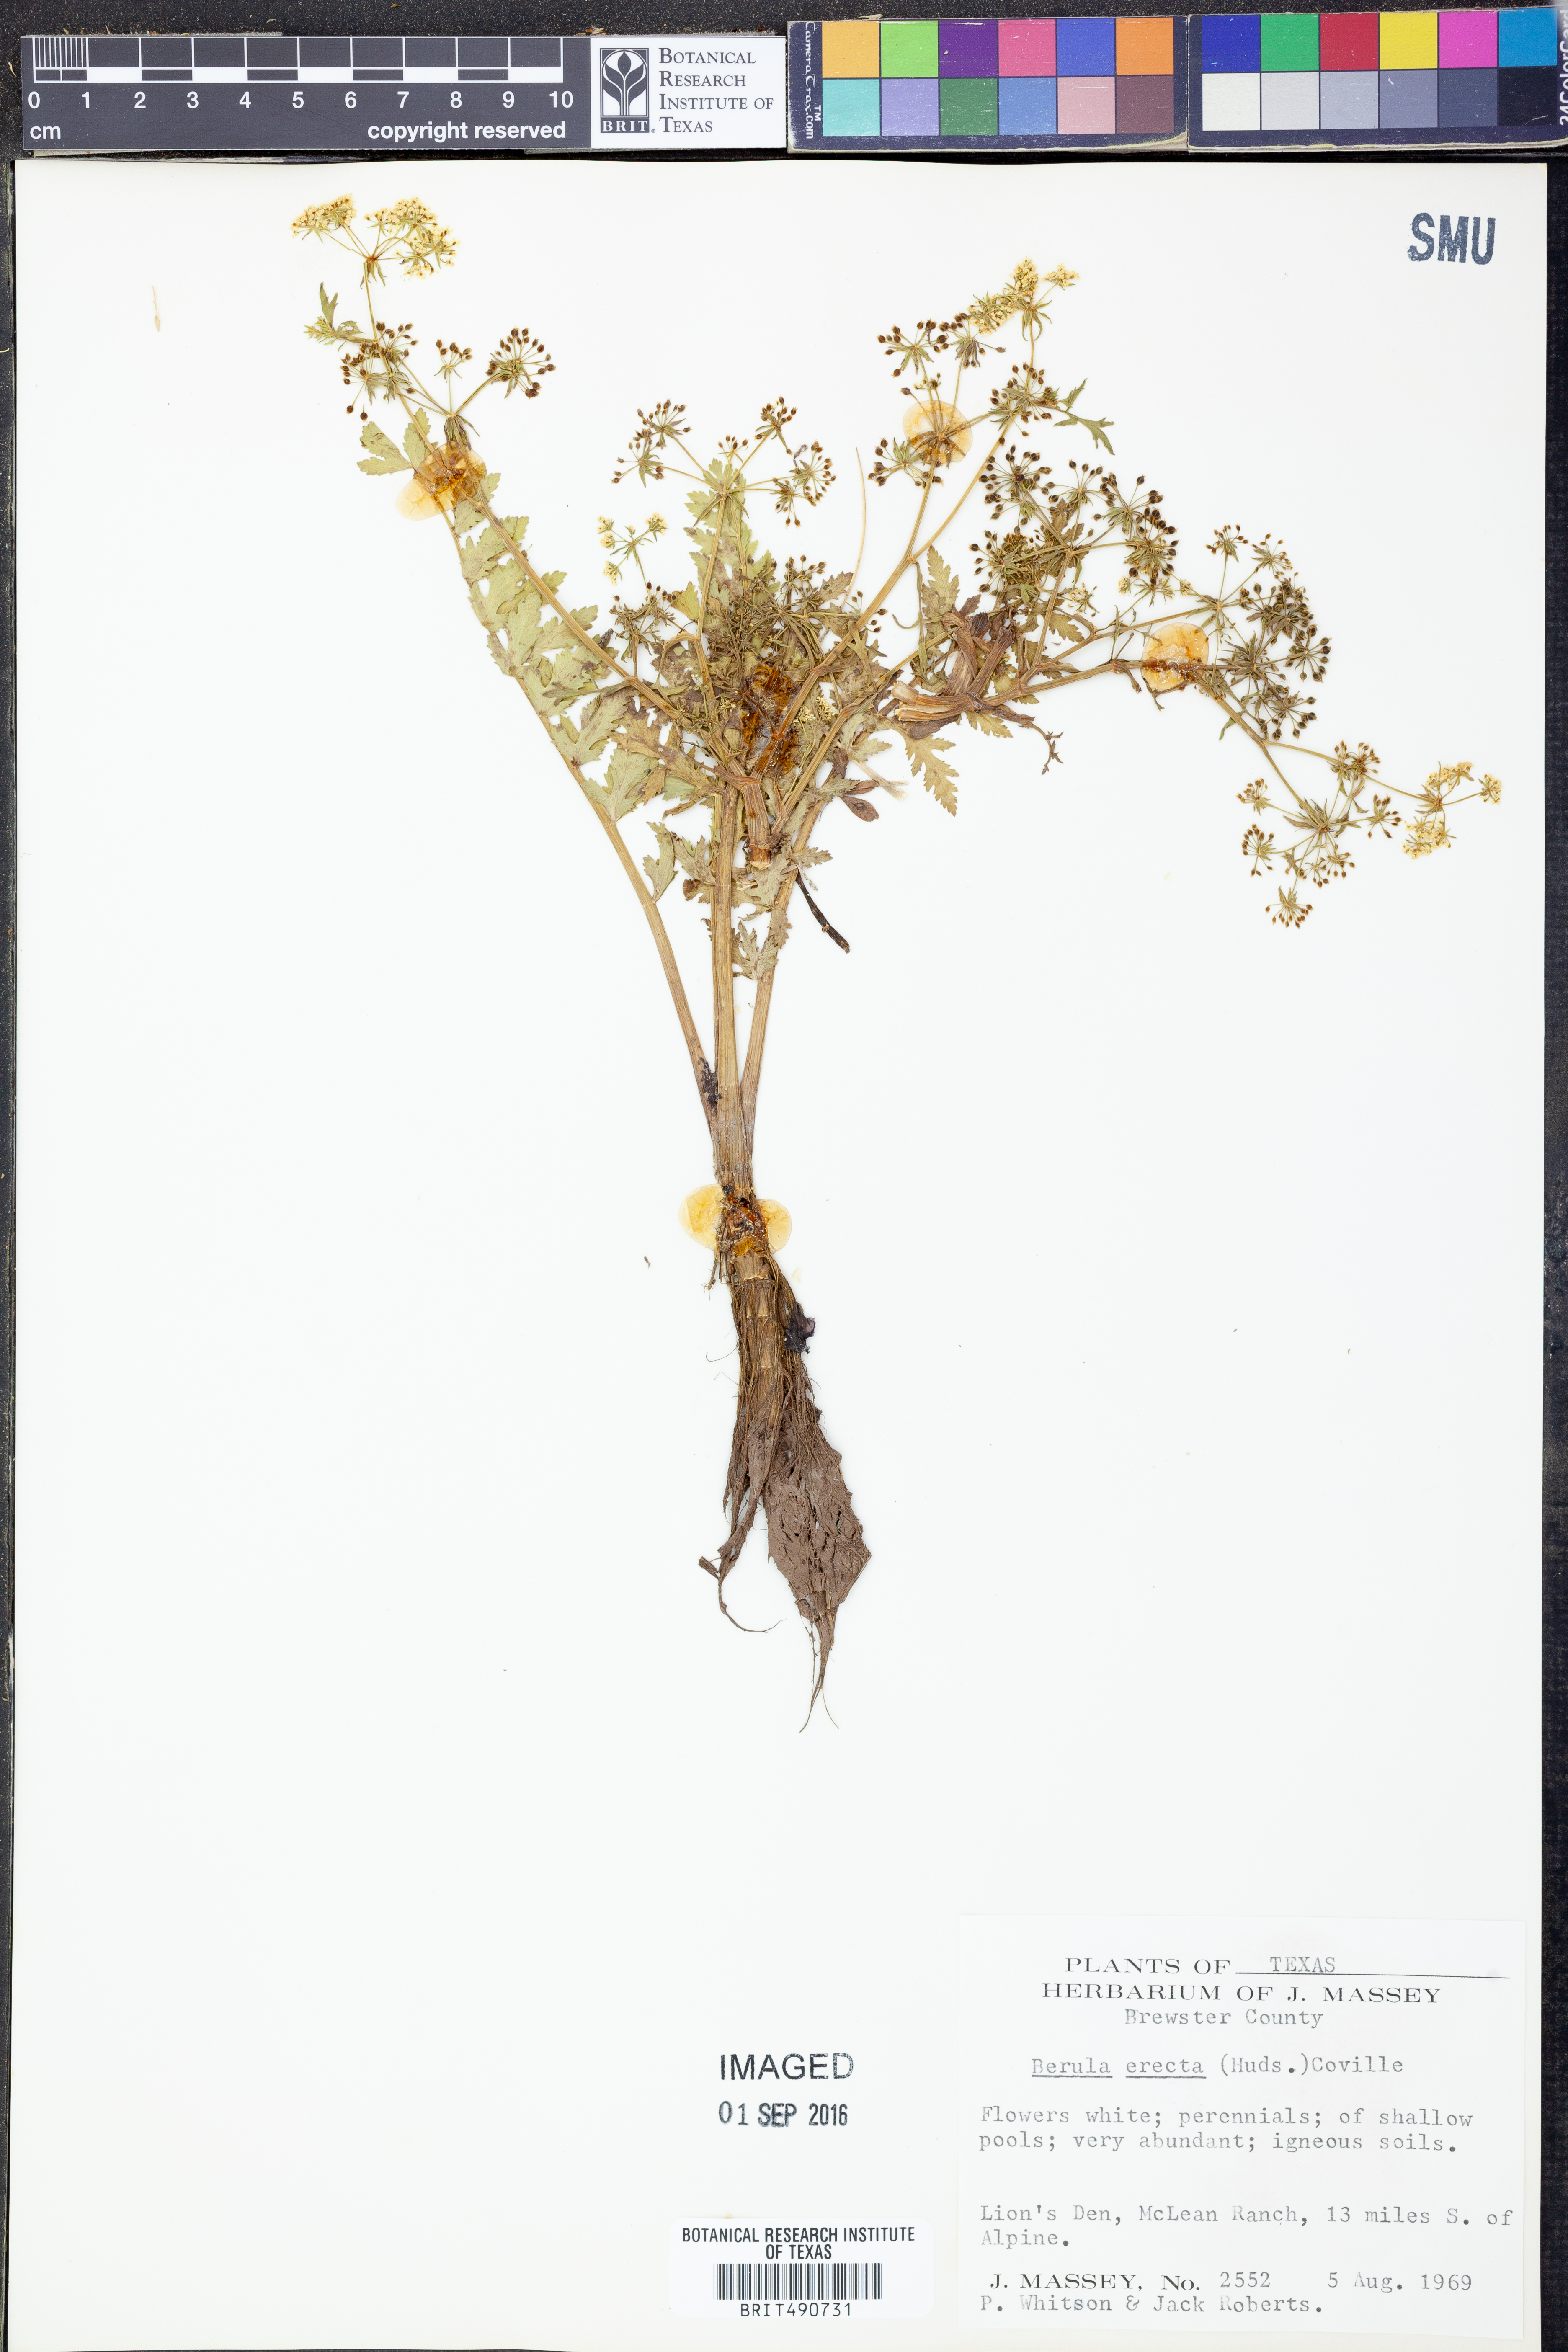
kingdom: Plantae
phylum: Tracheophyta
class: Magnoliopsida
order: Apiales
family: Apiaceae
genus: Berula
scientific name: Berula erecta
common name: Lesser water-parsnip
